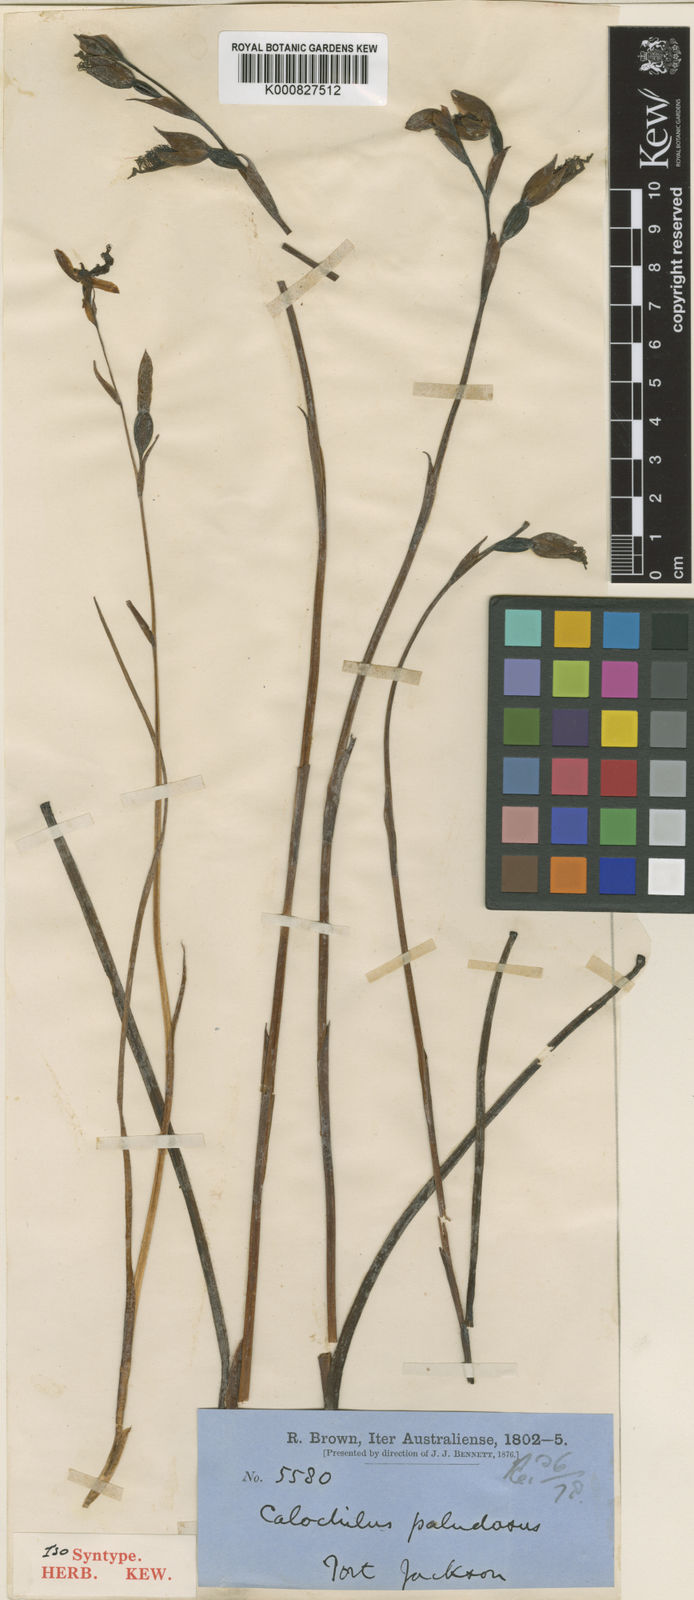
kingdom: Plantae
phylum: Tracheophyta
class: Liliopsida
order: Asparagales
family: Orchidaceae
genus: Calochilus
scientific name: Calochilus paludosus
